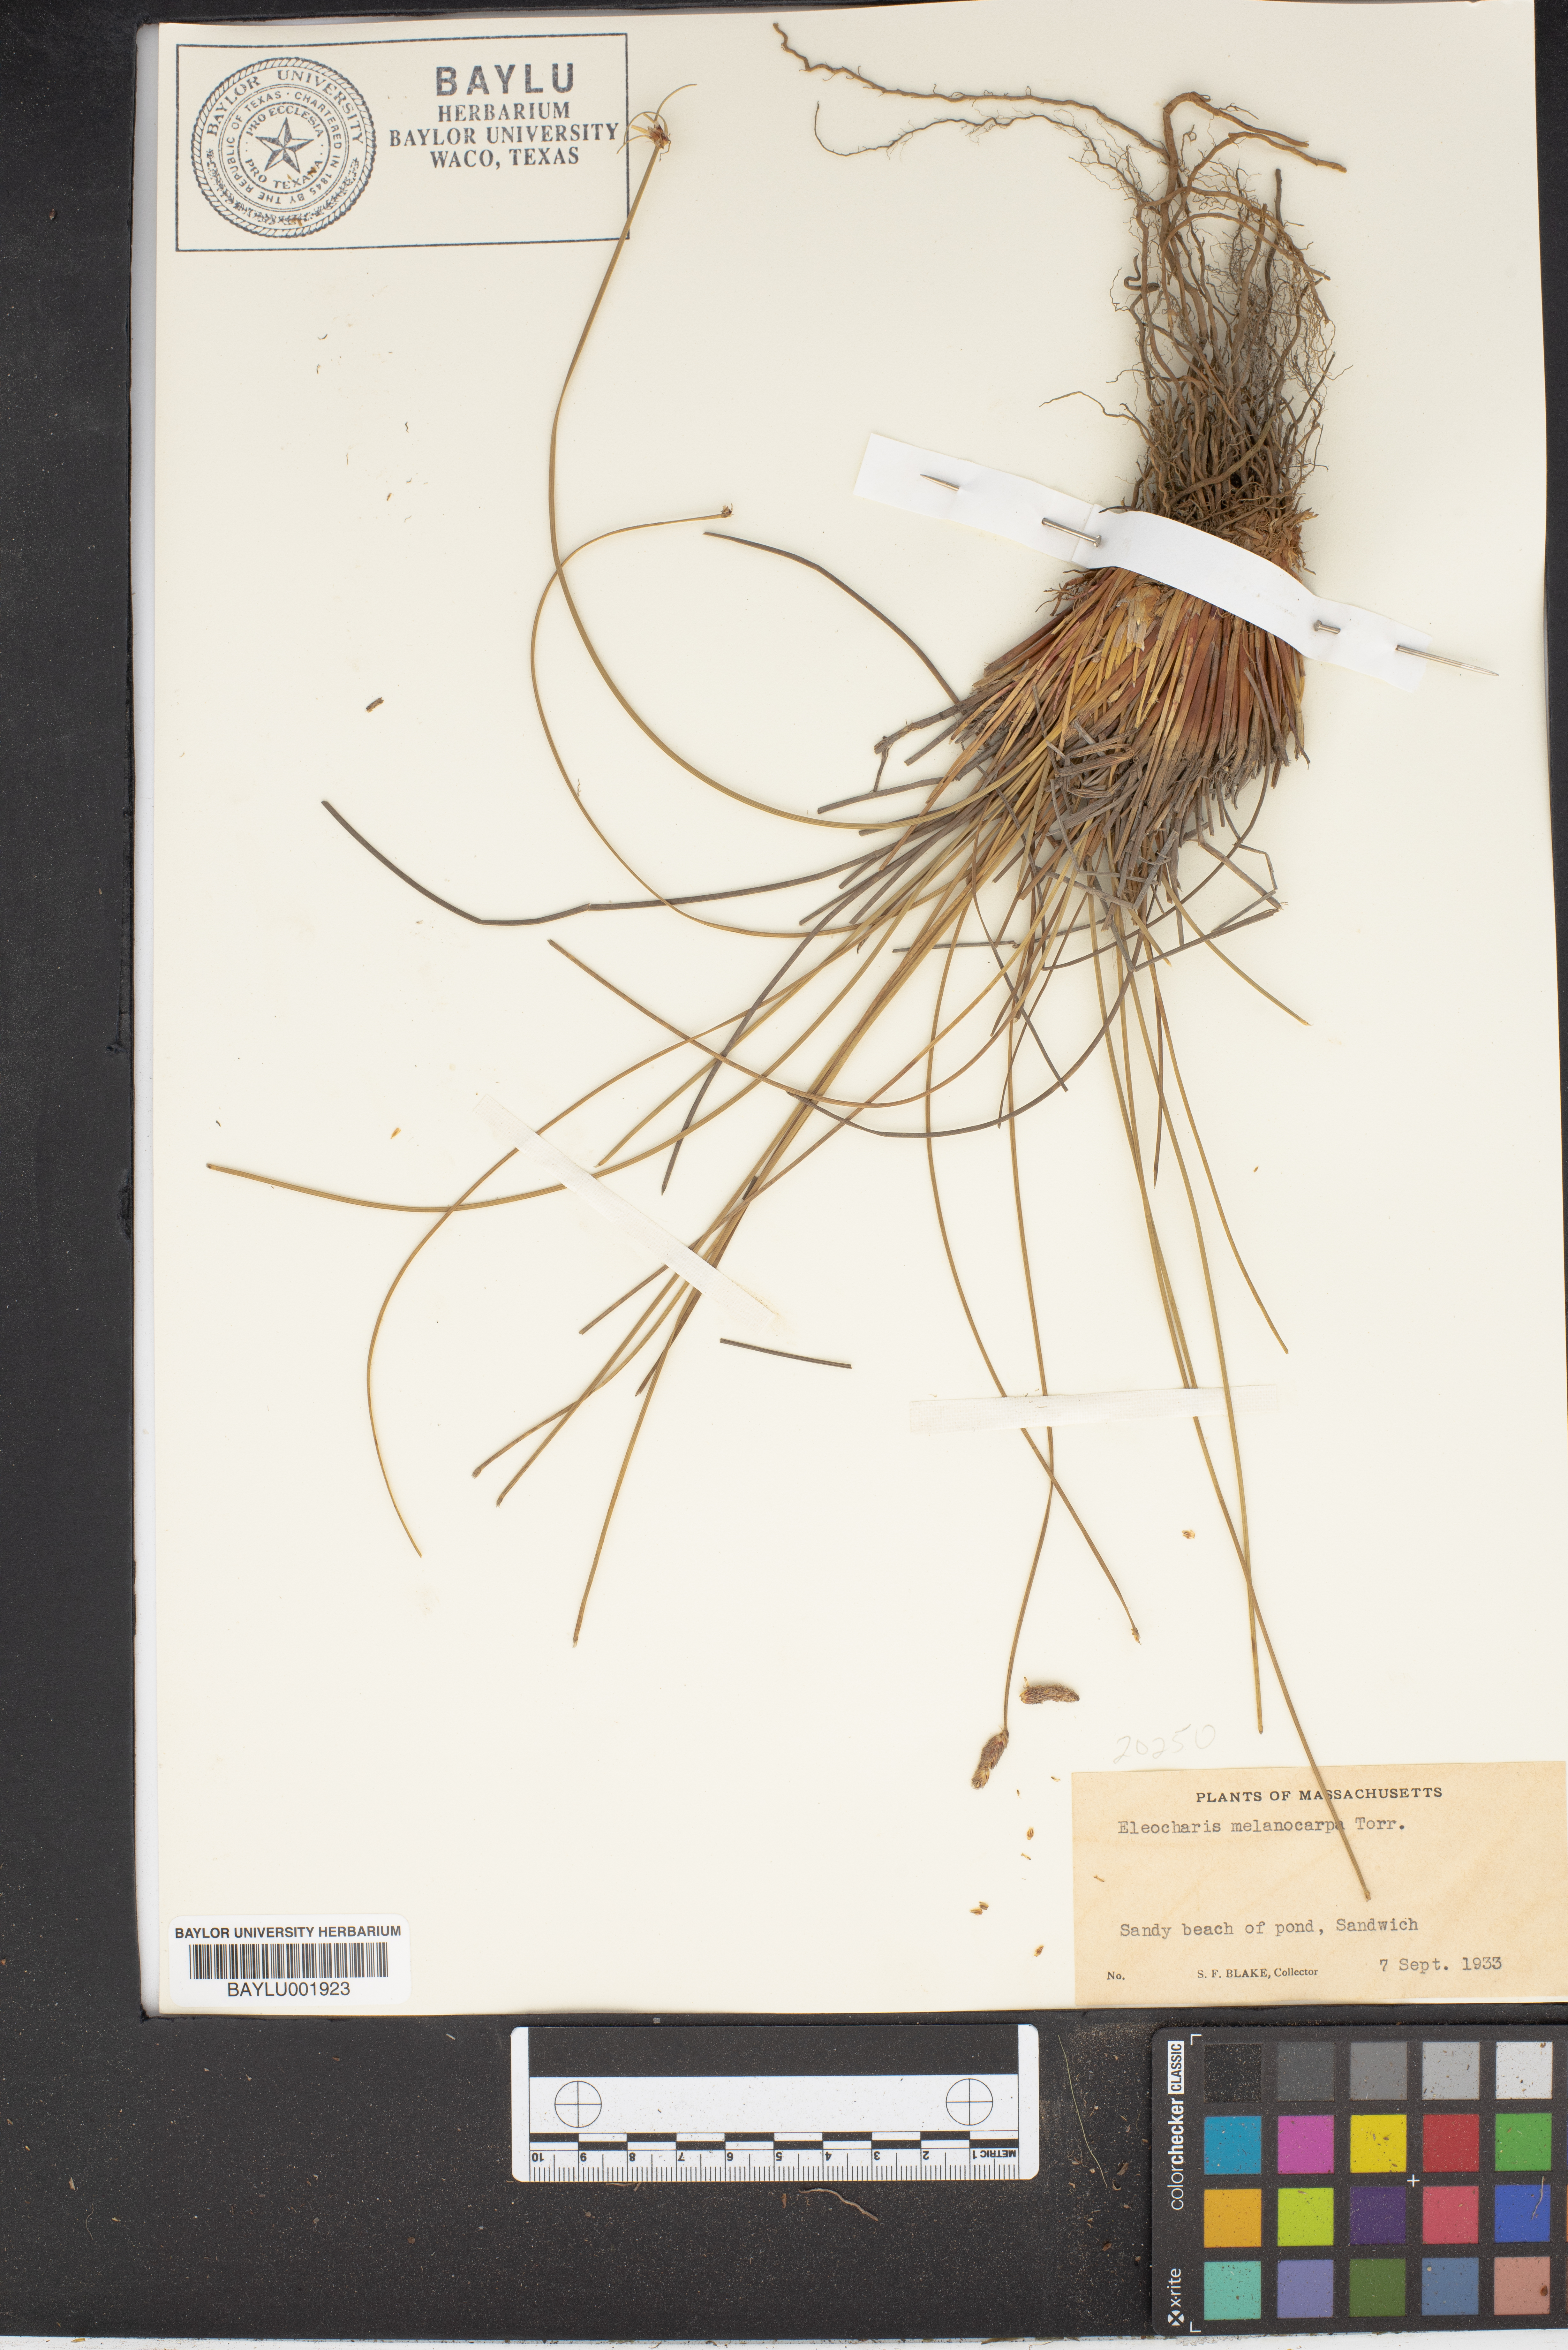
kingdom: Plantae
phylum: Tracheophyta
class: Liliopsida
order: Poales
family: Cyperaceae
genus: Eleocharis
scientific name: Eleocharis melanocarpa
